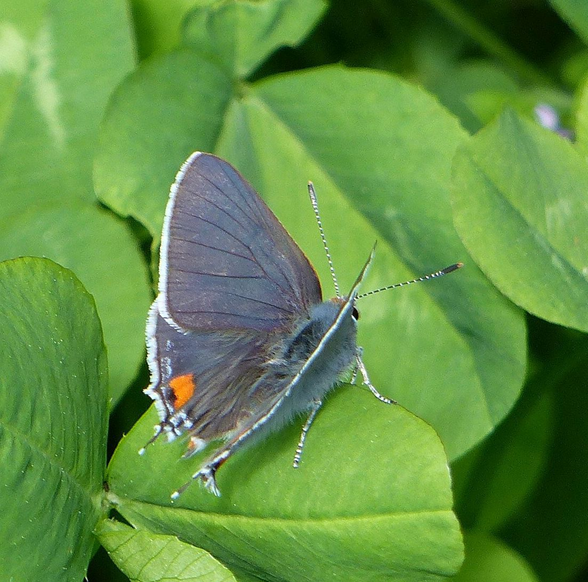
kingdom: Animalia
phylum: Arthropoda
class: Insecta
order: Lepidoptera
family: Lycaenidae
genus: Strymon
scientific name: Strymon melinus
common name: Gray Hairstreak
